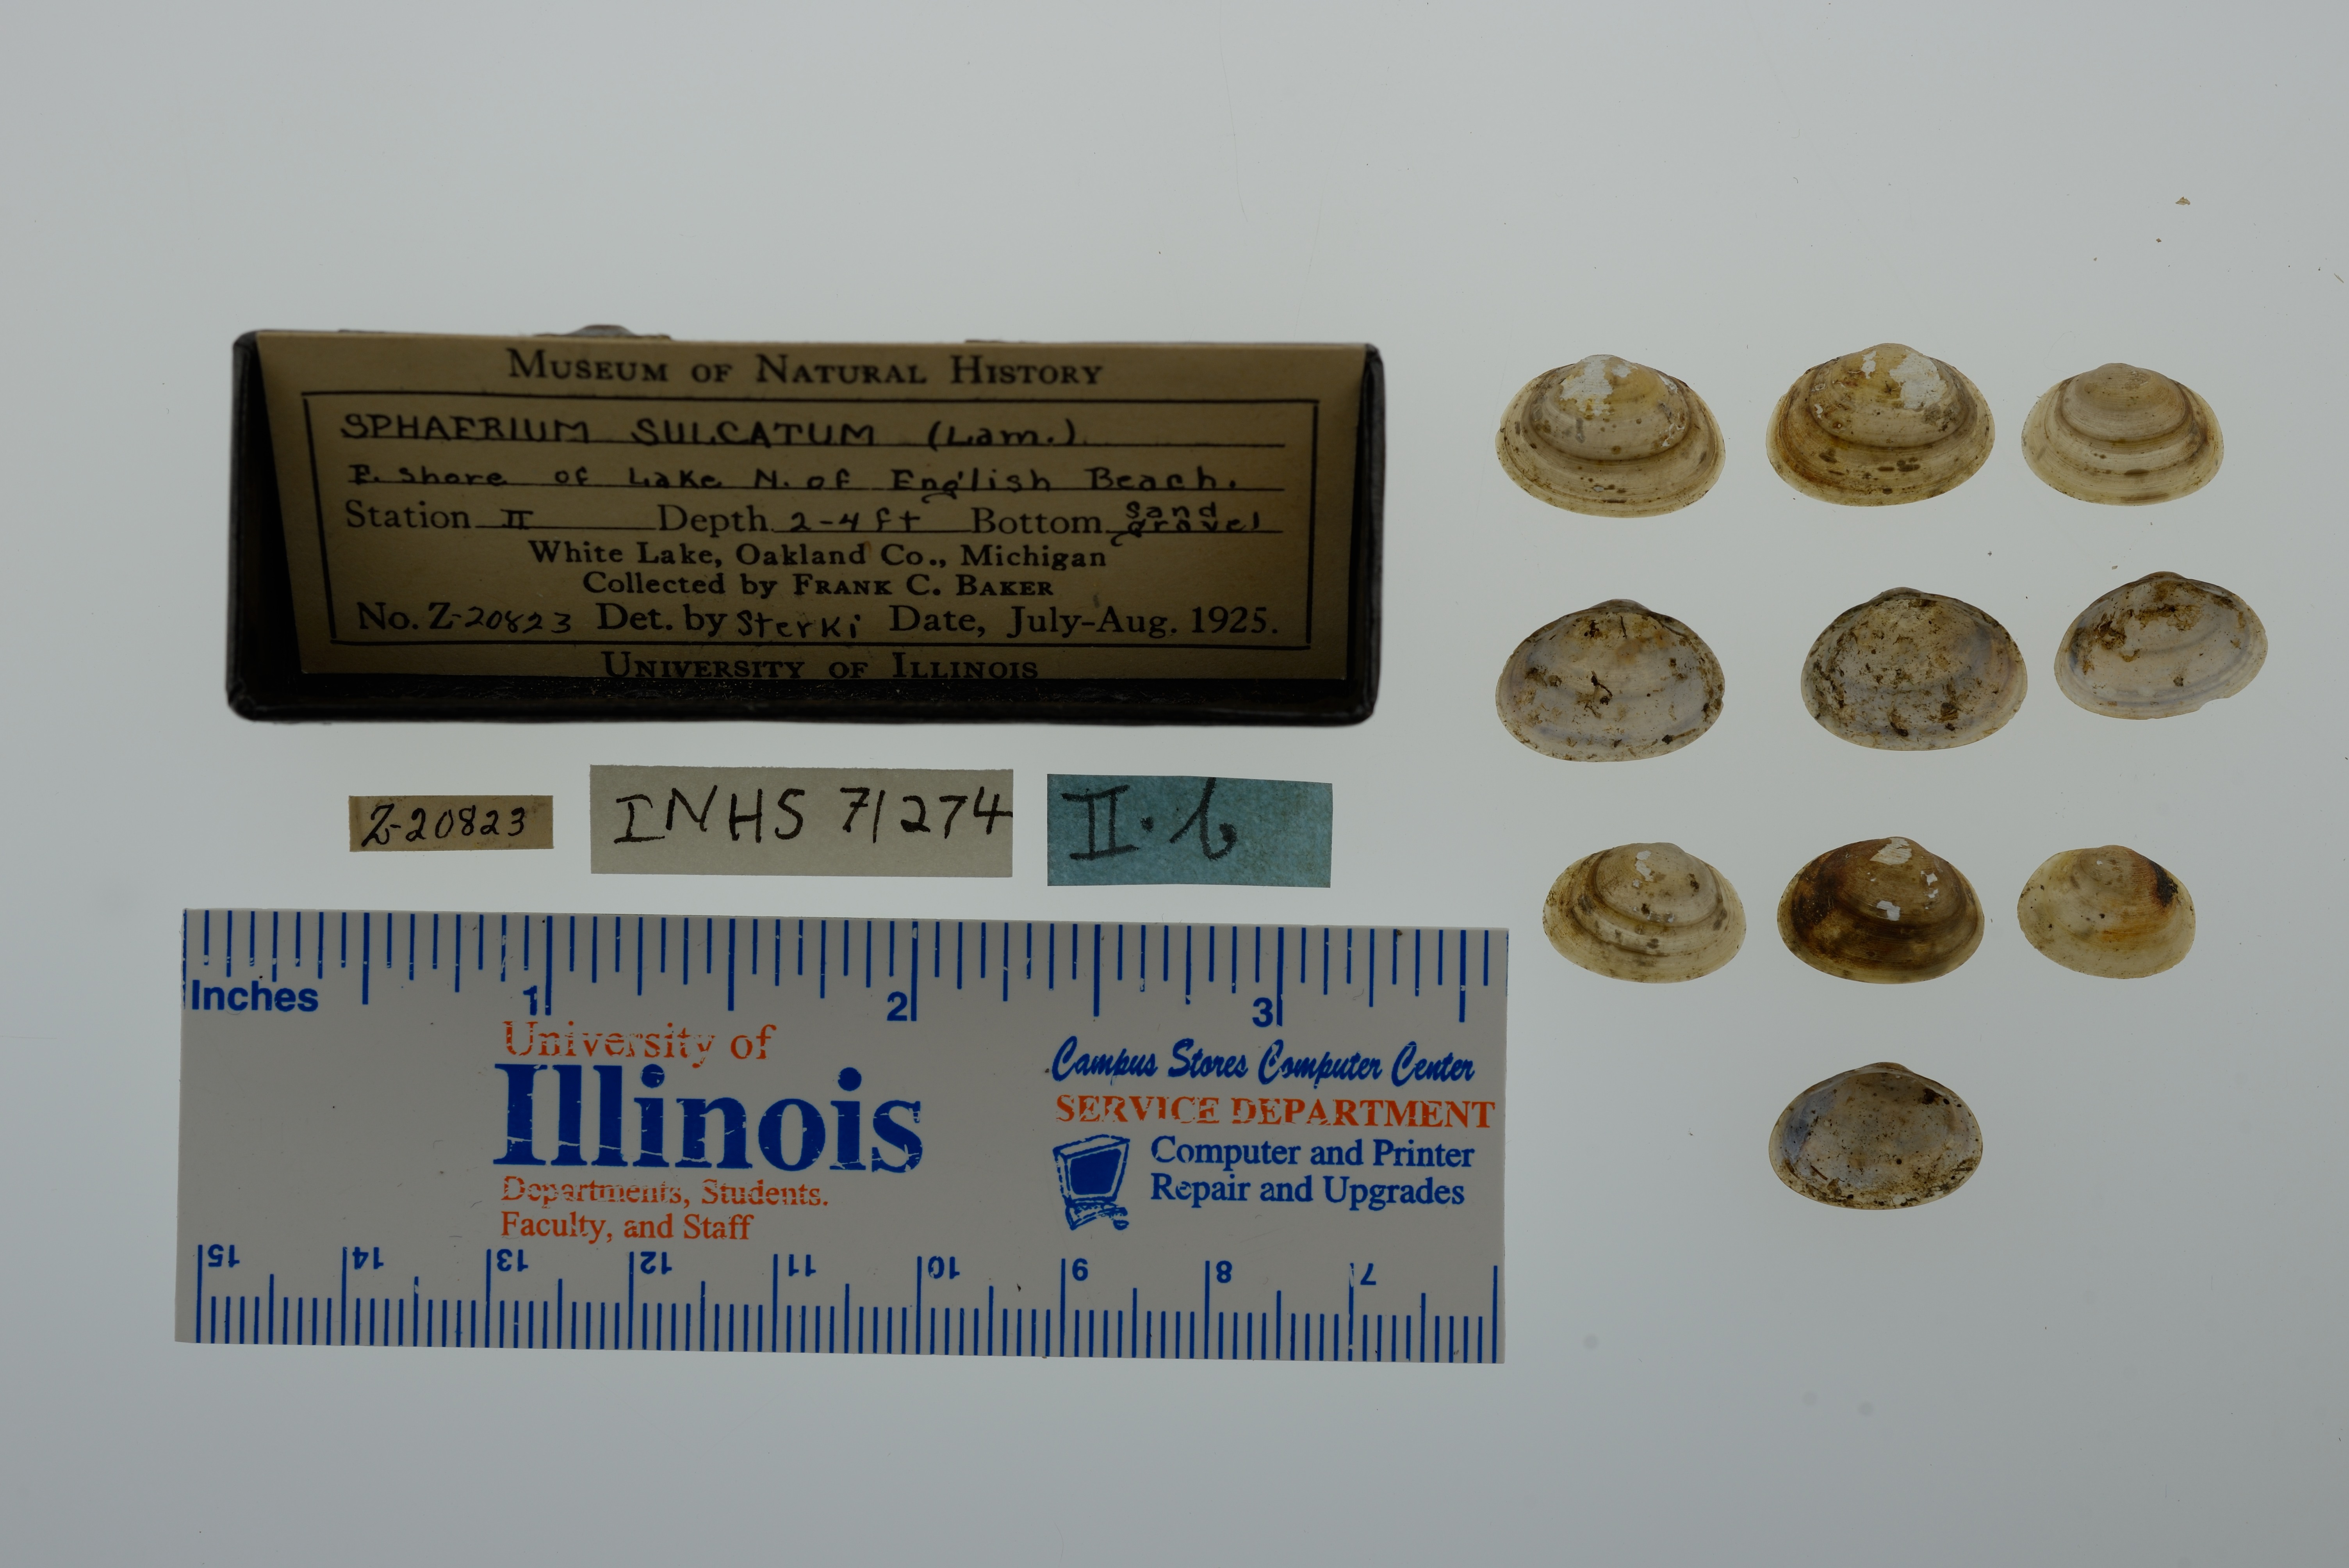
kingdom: Animalia
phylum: Mollusca
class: Bivalvia
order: Sphaeriida
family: Sphaeriidae
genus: Sphaerium
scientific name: Sphaerium simile
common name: Grooved fingernailclam
